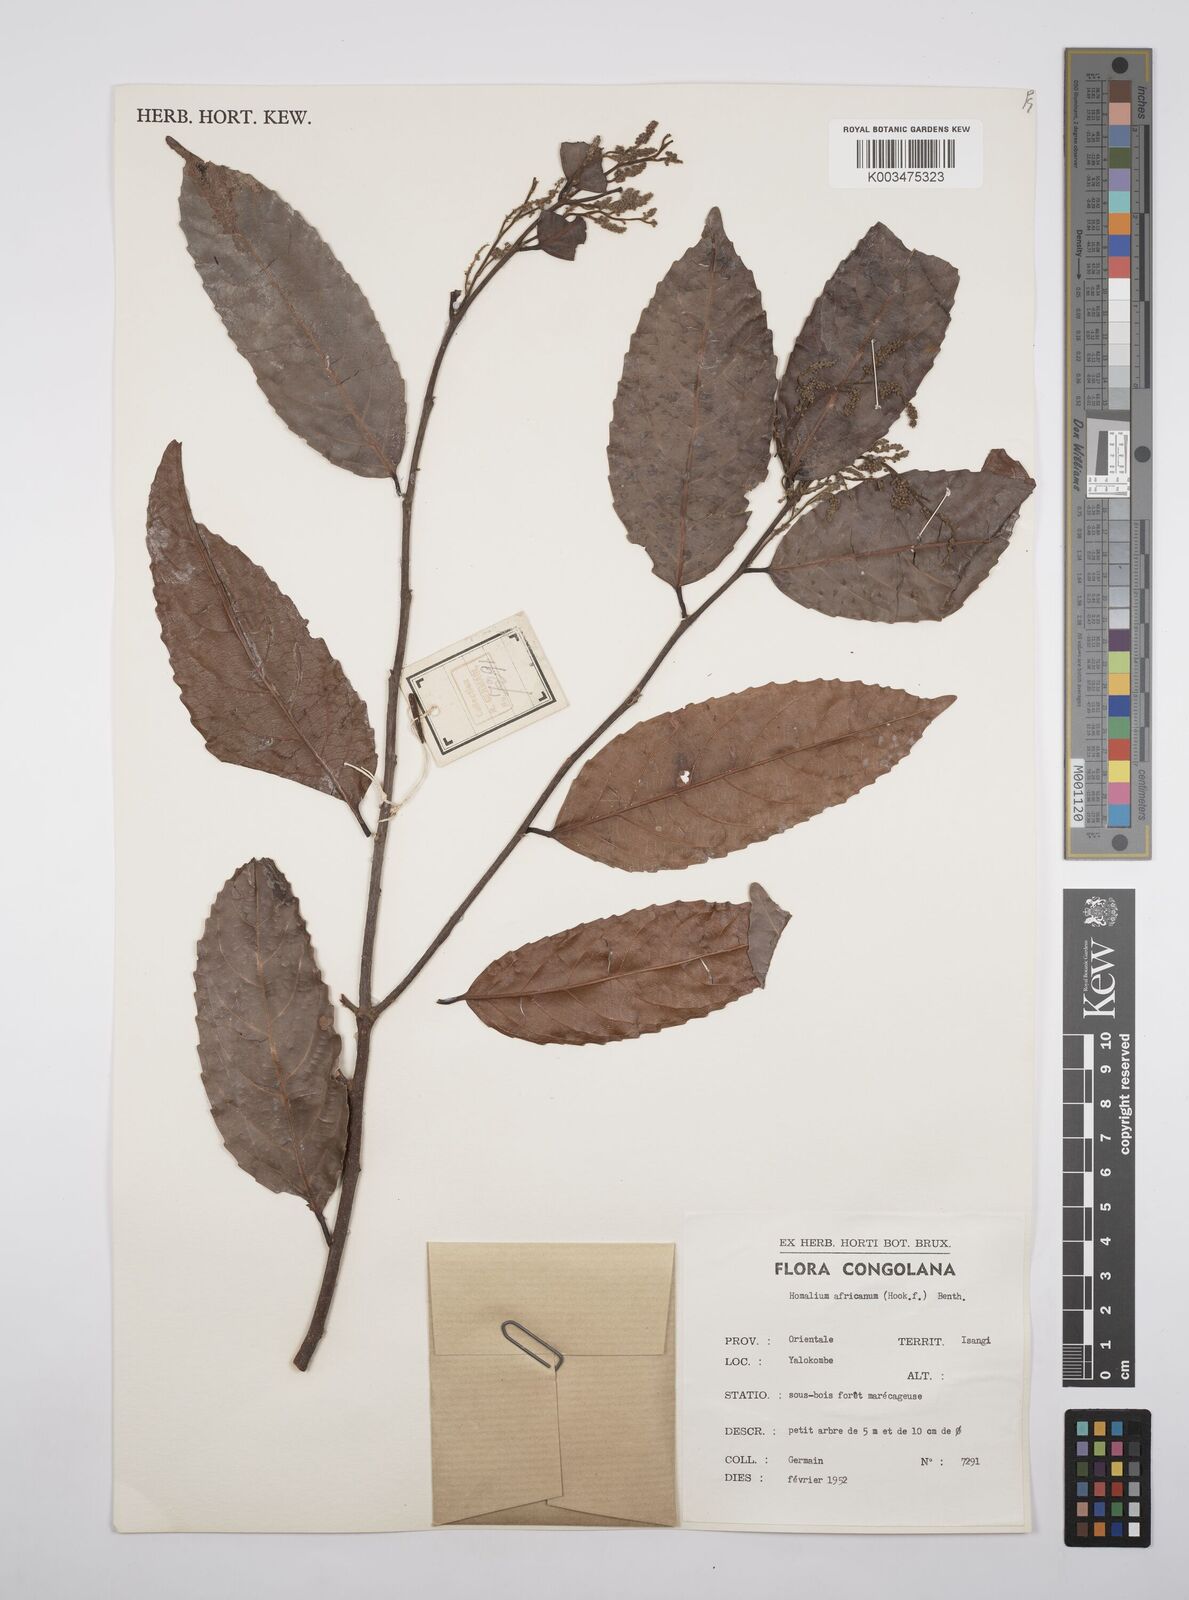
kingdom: Plantae
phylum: Tracheophyta
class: Magnoliopsida
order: Malpighiales
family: Salicaceae
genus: Homalium
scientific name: Homalium africanum
